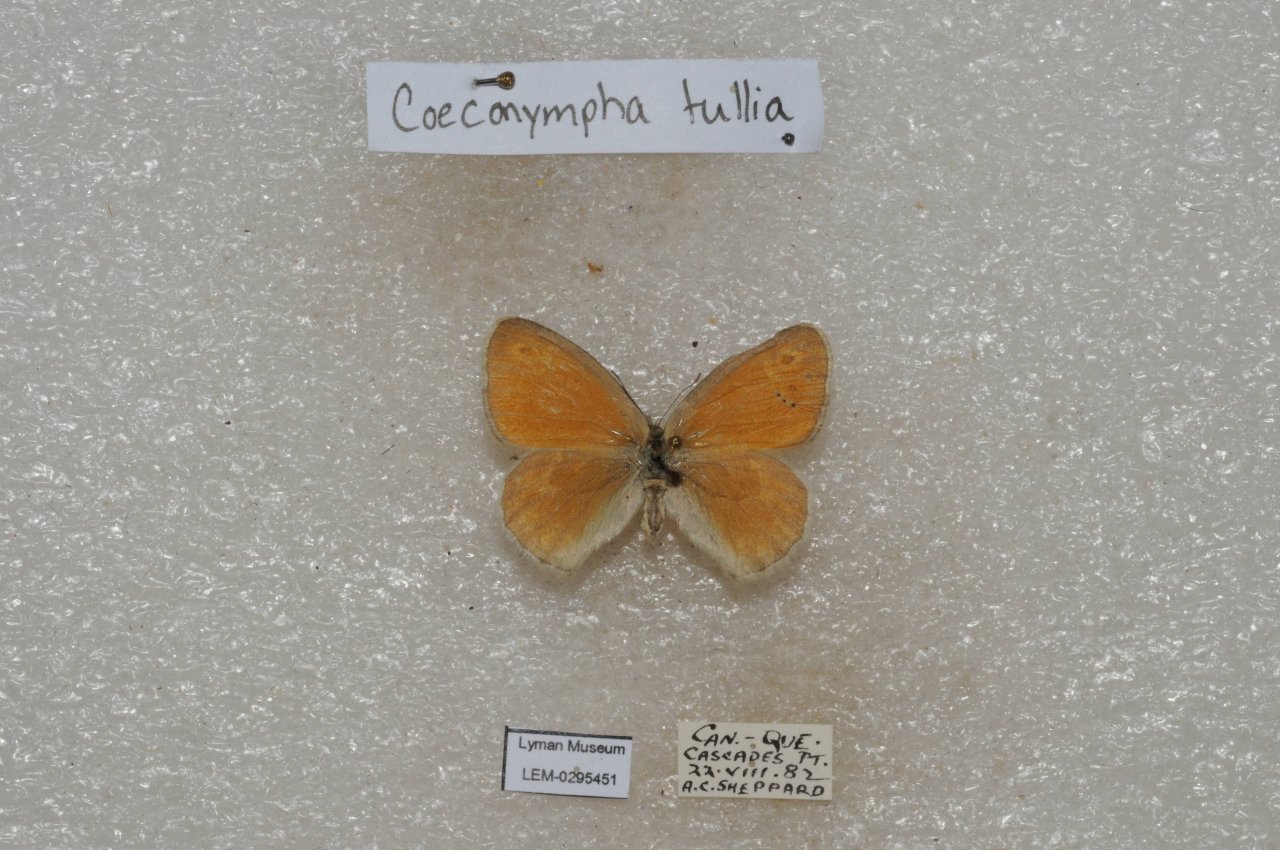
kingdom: Animalia
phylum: Arthropoda
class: Insecta
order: Lepidoptera
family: Nymphalidae
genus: Coenonympha
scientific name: Coenonympha tullia
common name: Large Heath
